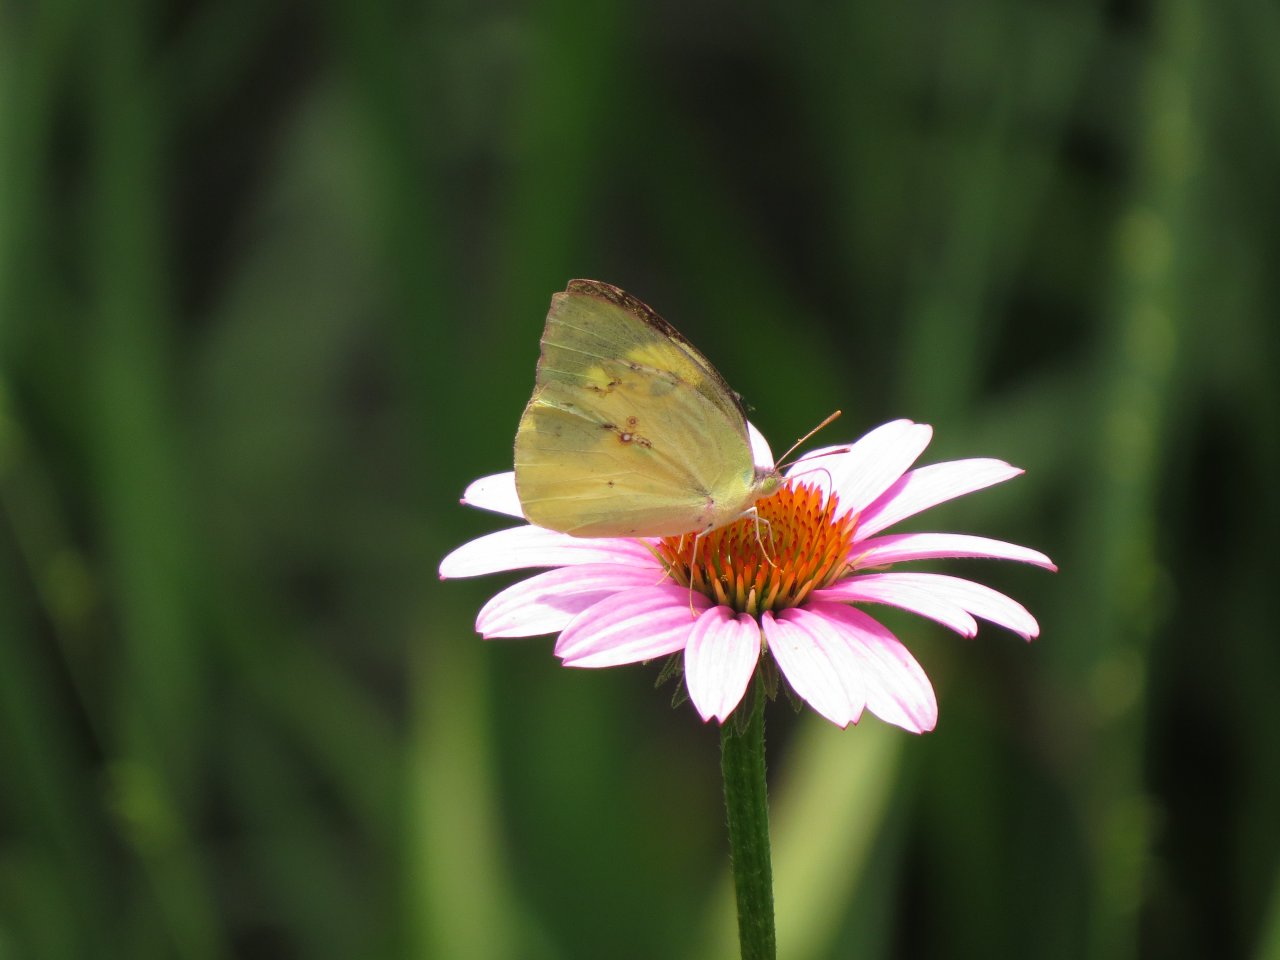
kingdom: Animalia
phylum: Arthropoda
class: Insecta
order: Lepidoptera
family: Pieridae
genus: Zerene
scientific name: Zerene cesonia
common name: Southern Dogface
